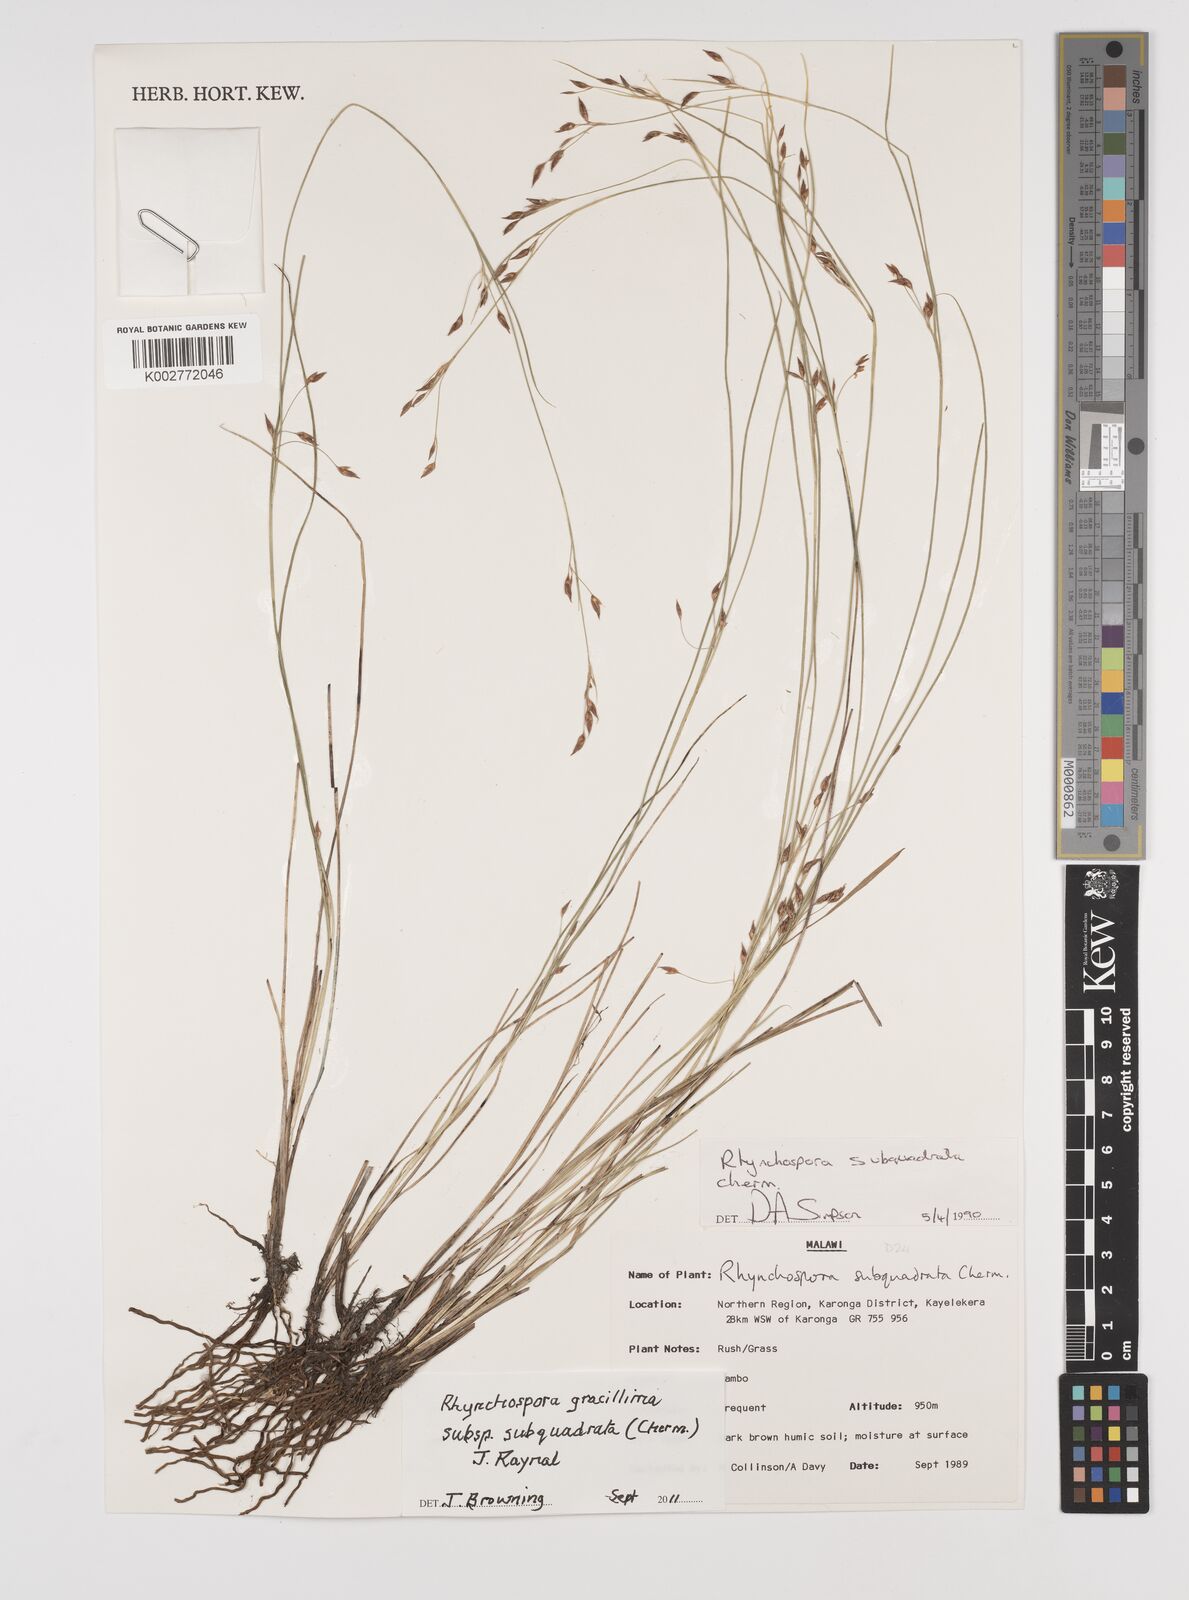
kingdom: Plantae
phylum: Tracheophyta
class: Liliopsida
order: Poales
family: Cyperaceae
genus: Rhynchospora
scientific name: Rhynchospora gracillima
